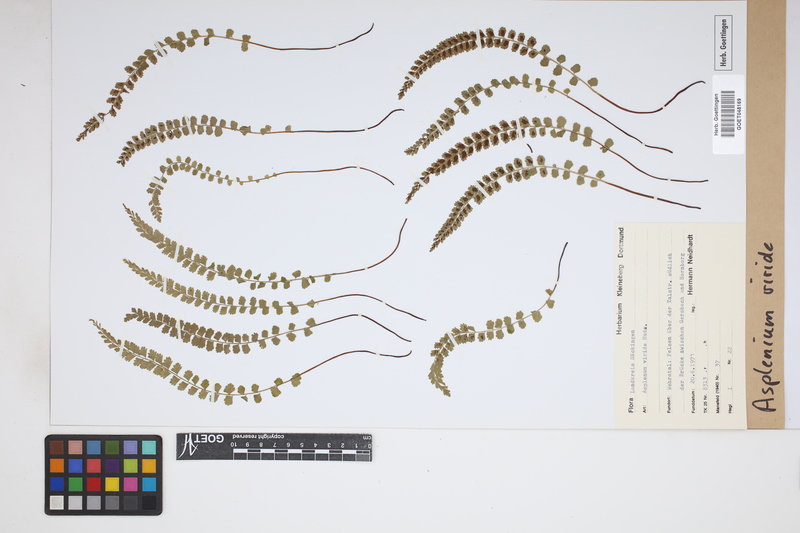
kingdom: Plantae
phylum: Tracheophyta
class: Polypodiopsida
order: Polypodiales
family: Aspleniaceae
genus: Asplenium
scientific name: Asplenium viride
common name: Green spleenwort
